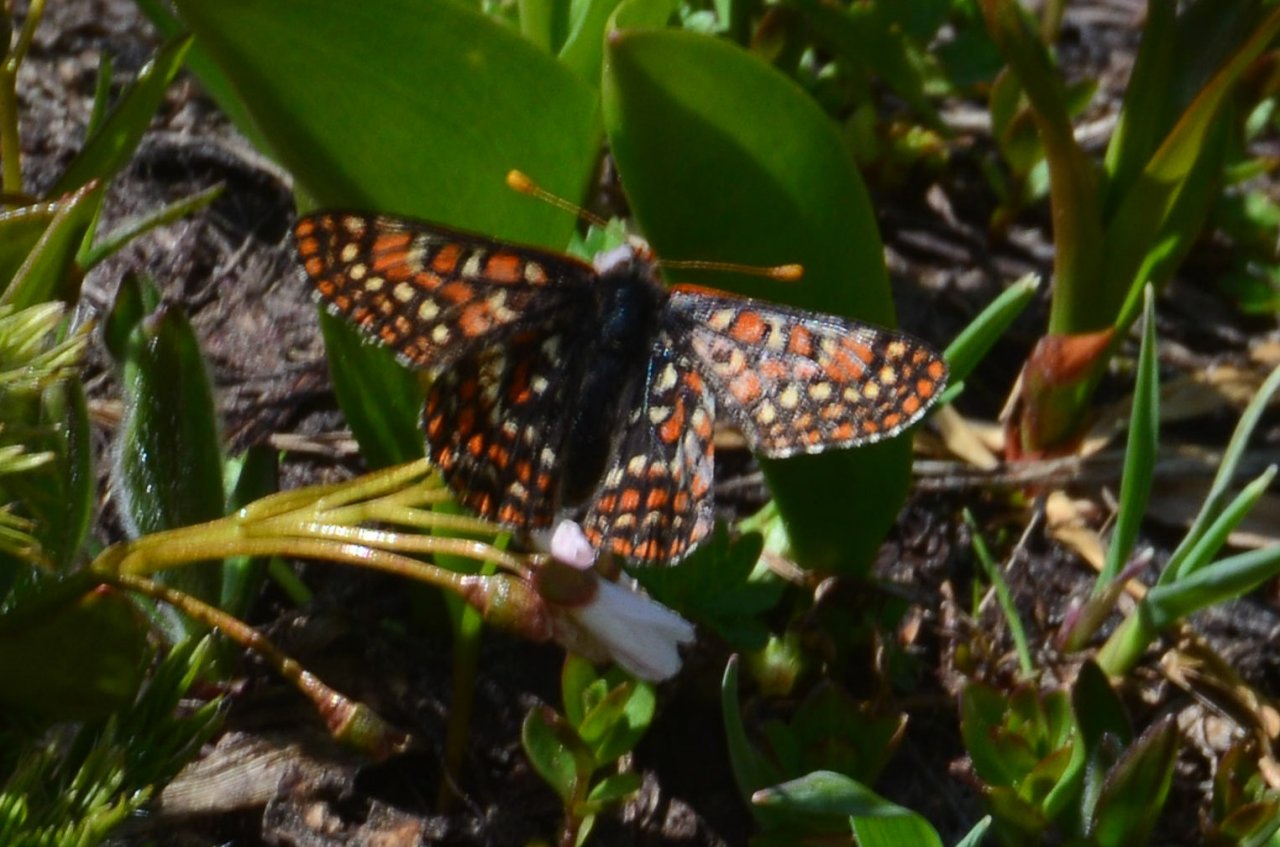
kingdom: Animalia
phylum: Arthropoda
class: Insecta
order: Lepidoptera
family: Nymphalidae
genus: Occidryas
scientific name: Occidryas editha
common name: Edith's Checkerspot
